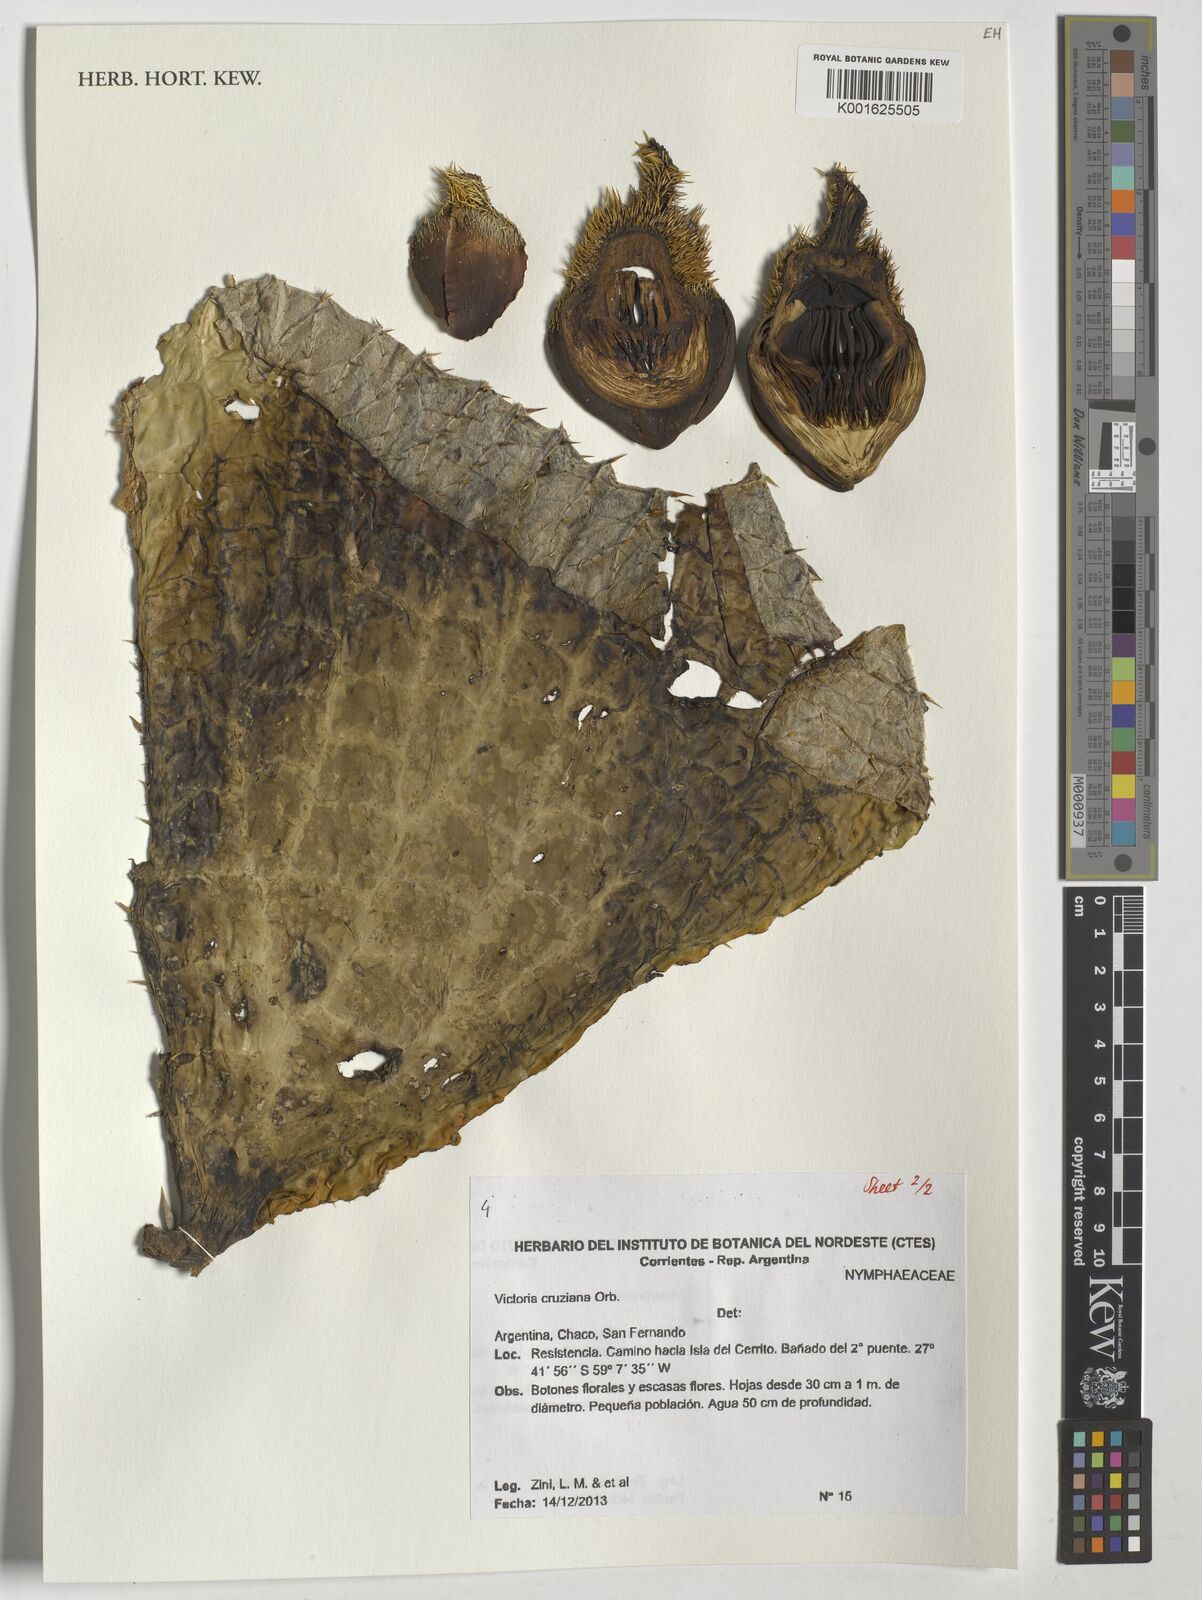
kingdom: Plantae
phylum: Tracheophyta
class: Magnoliopsida
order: Nymphaeales
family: Nymphaeaceae
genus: Victoria
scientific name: Victoria cruziana
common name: Santa cruz water-lily
